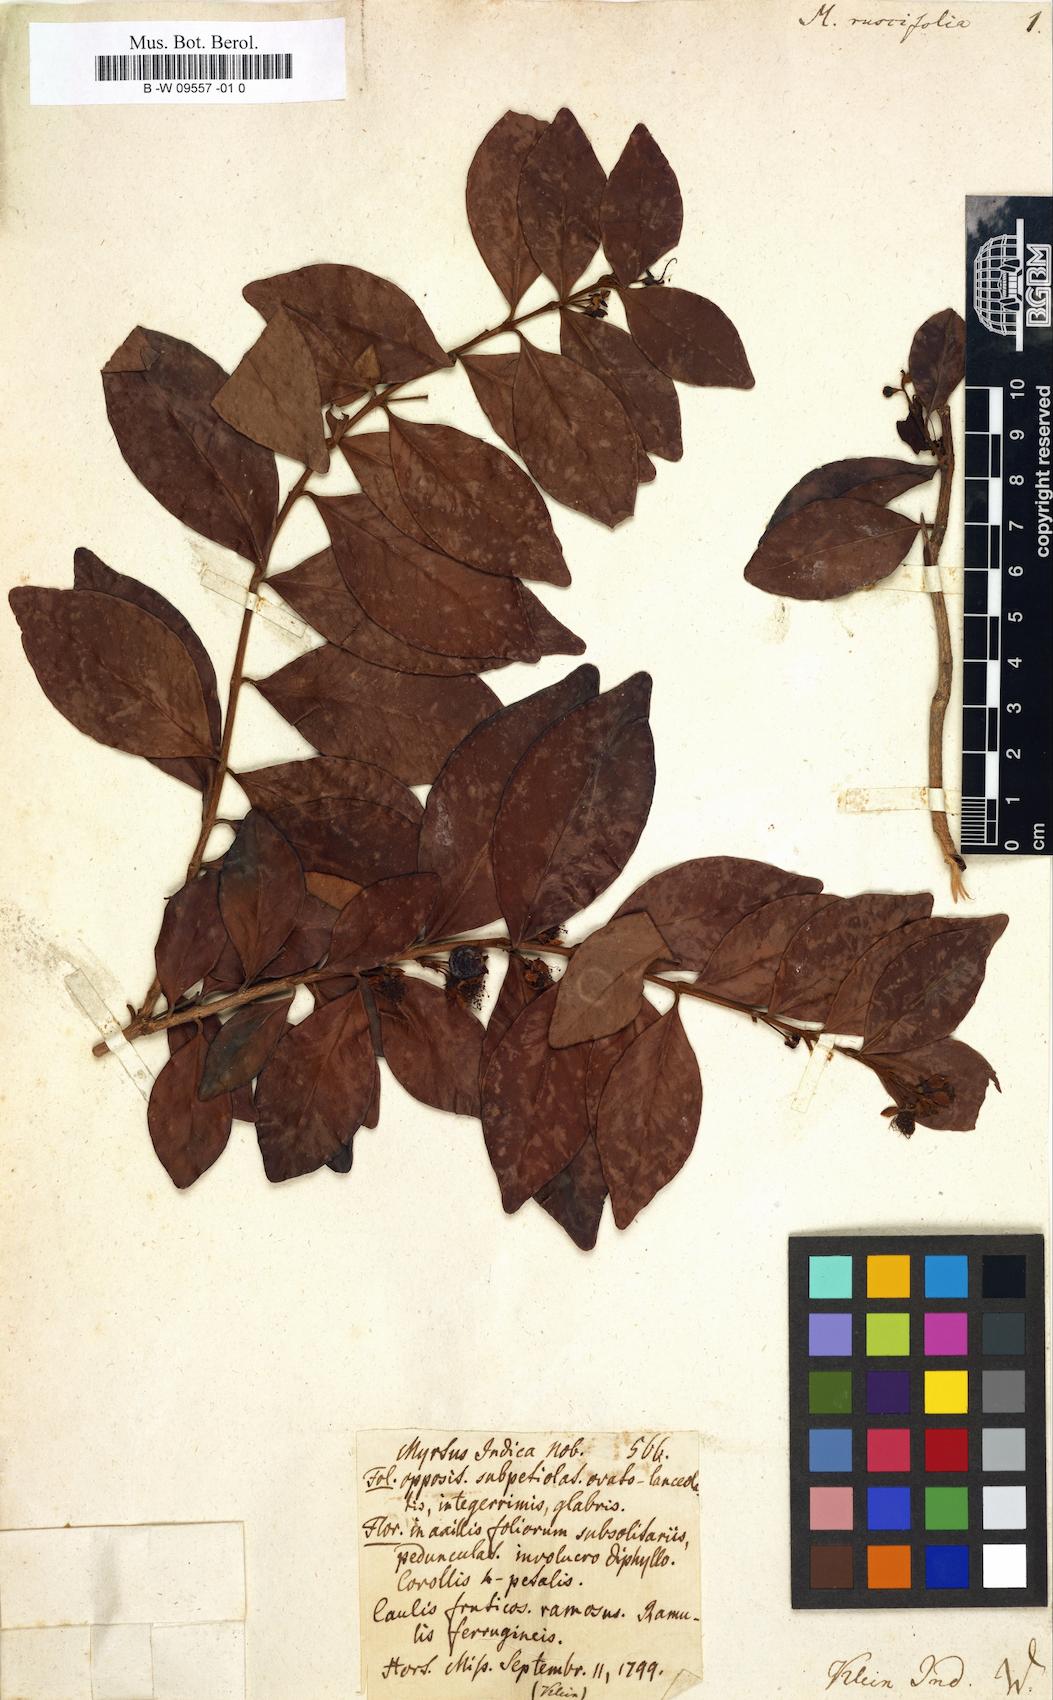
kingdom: Plantae
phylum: Tracheophyta
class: Magnoliopsida
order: Myrtales
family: Myrtaceae
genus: Myrtus
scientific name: Myrtus ruscifolia
